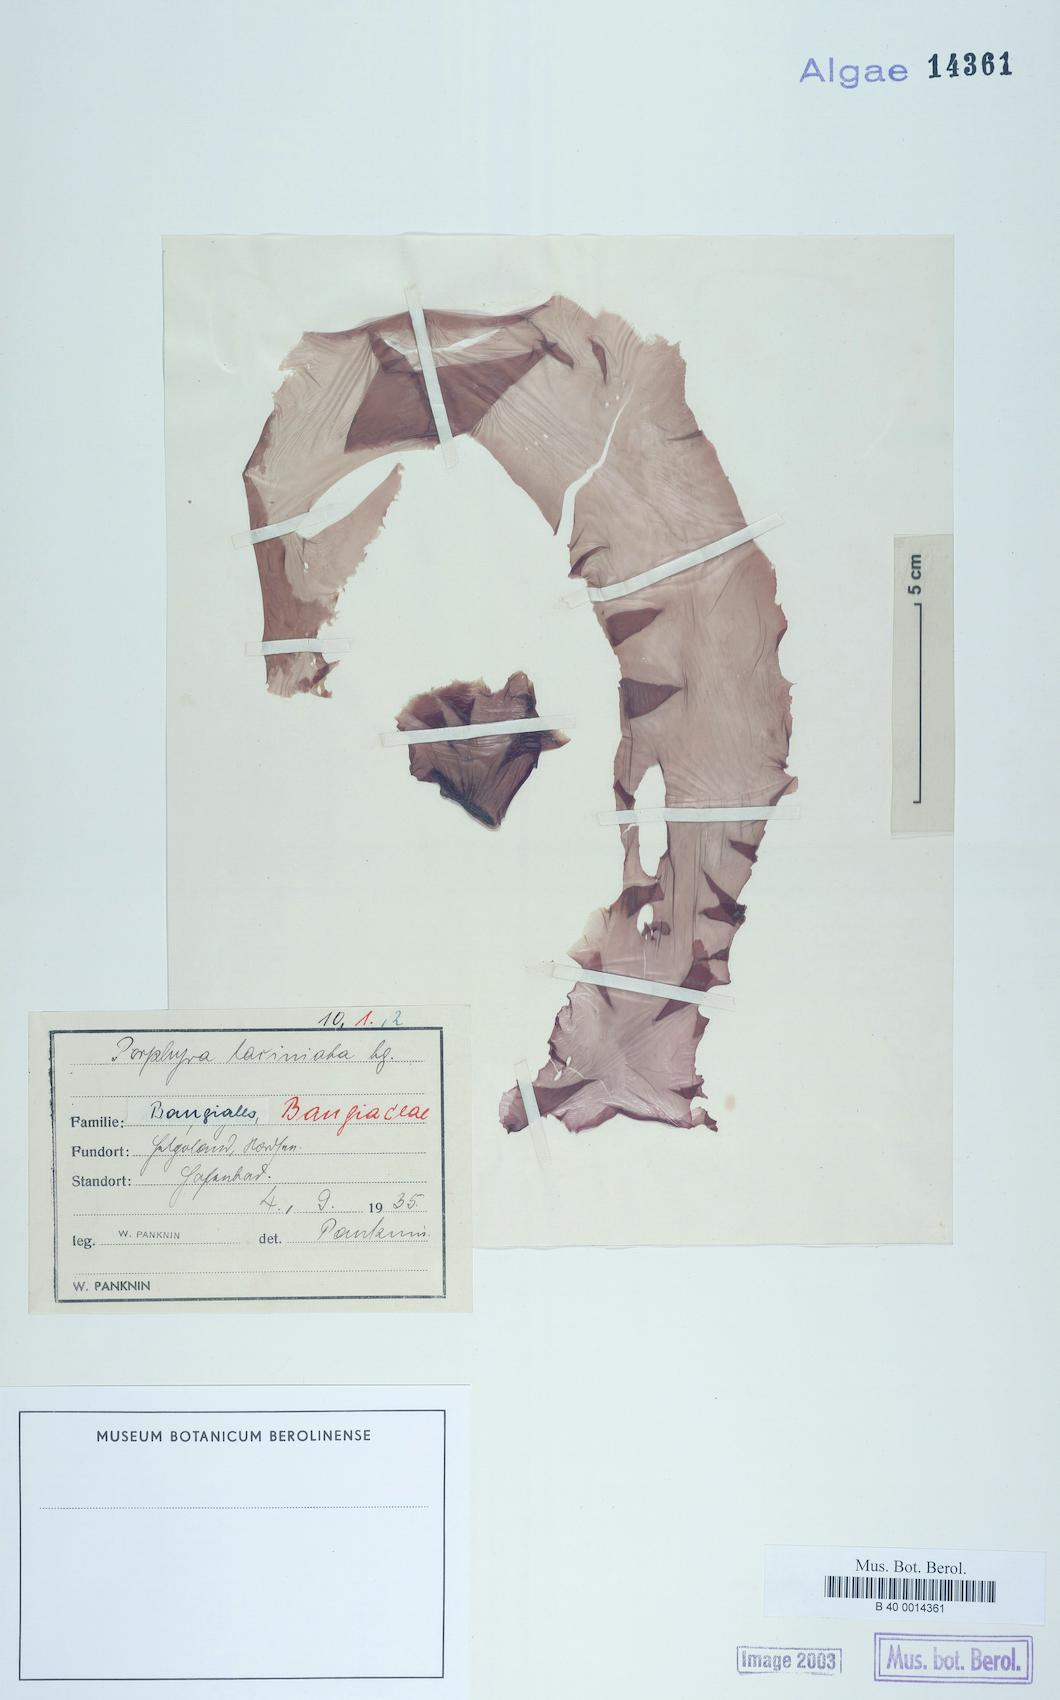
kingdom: Plantae
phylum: Rhodophyta
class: Bangiophyceae
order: Bangiales
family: Bangiaceae
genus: Porphyra
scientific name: Porphyra purpurea
